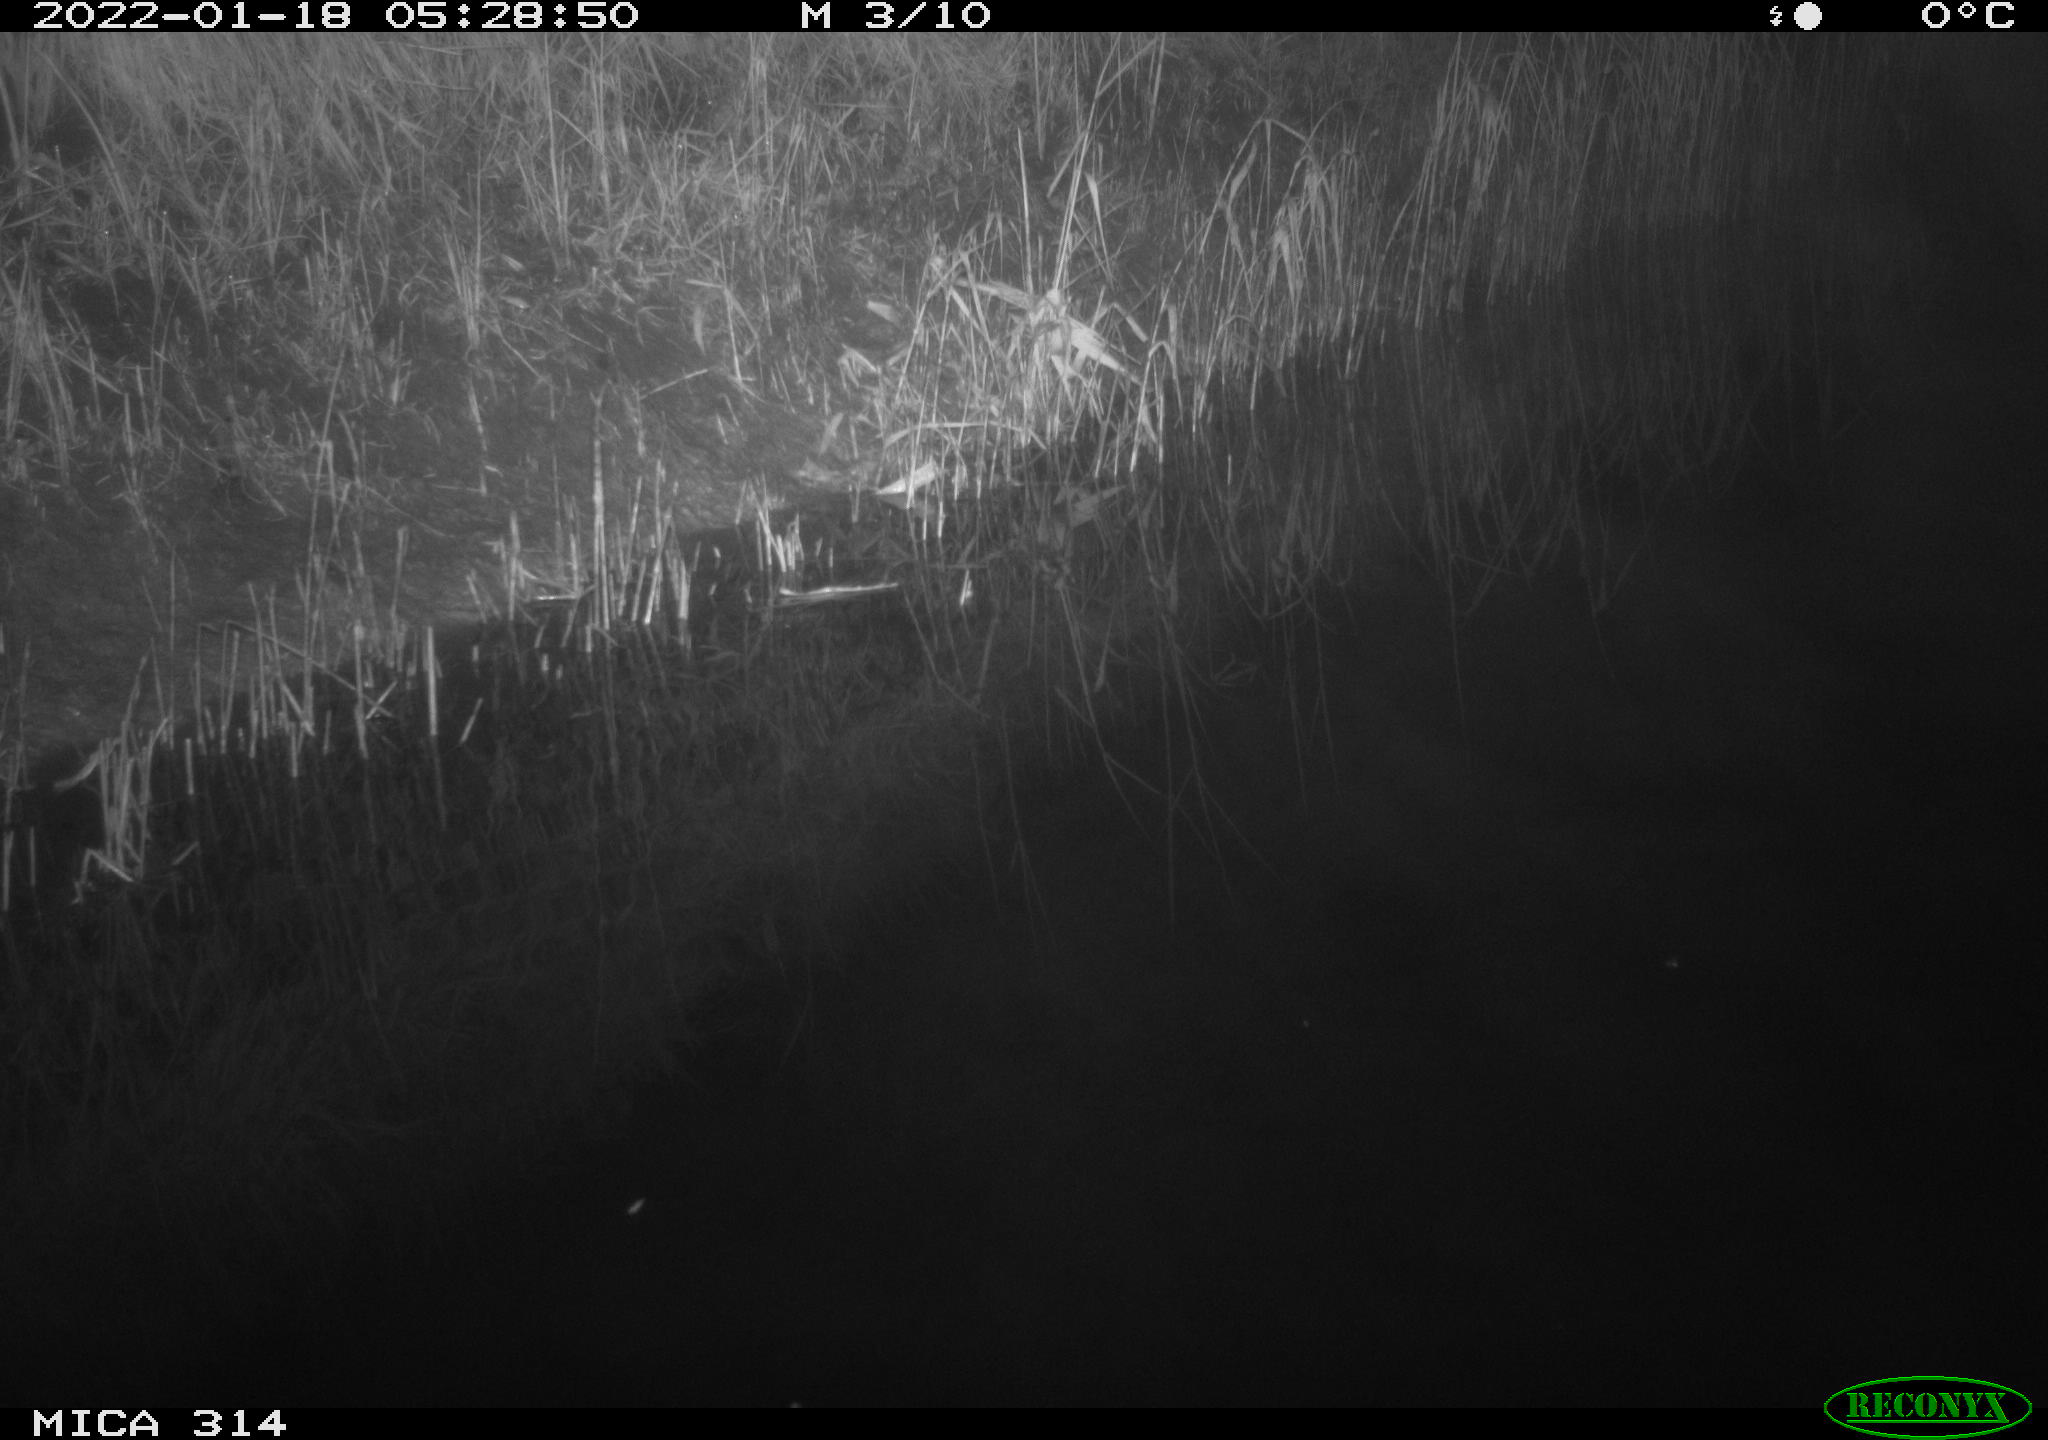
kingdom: Animalia
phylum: Chordata
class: Mammalia
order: Rodentia
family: Muridae
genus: Rattus
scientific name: Rattus norvegicus
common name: Brown rat
